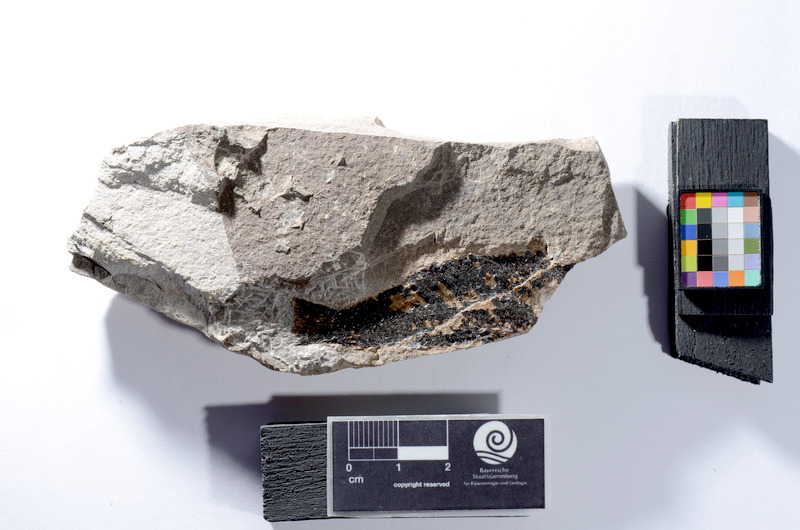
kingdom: Animalia
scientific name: Animalia
